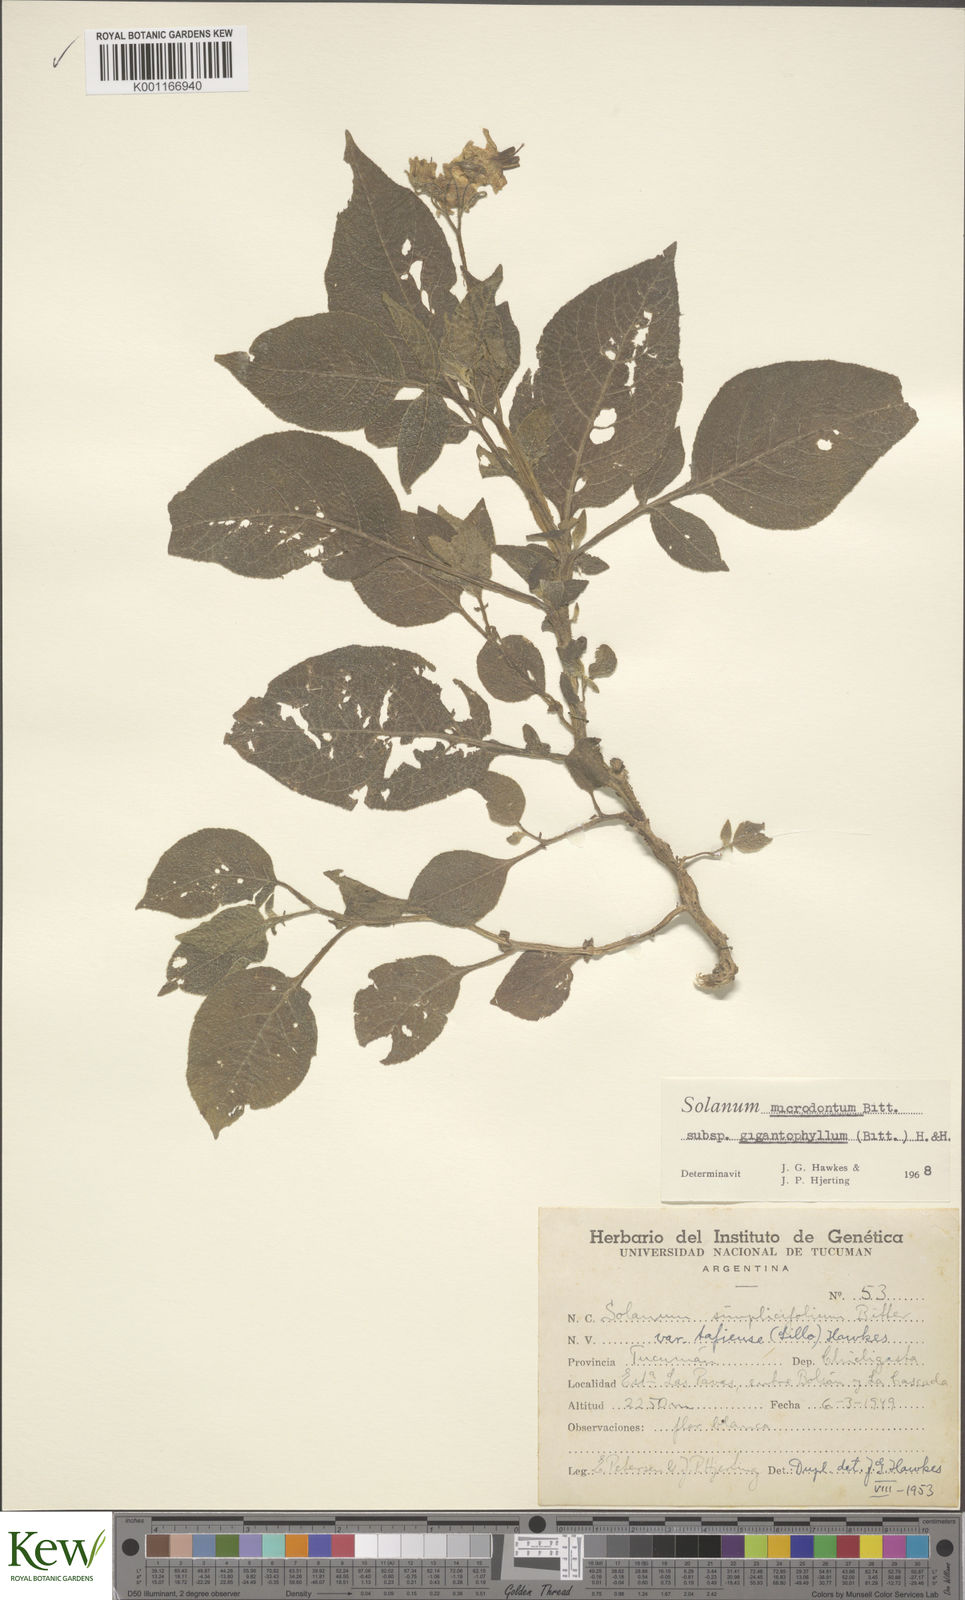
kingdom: Plantae
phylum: Tracheophyta
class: Magnoliopsida
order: Solanales
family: Solanaceae
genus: Solanum
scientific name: Solanum microdontum
